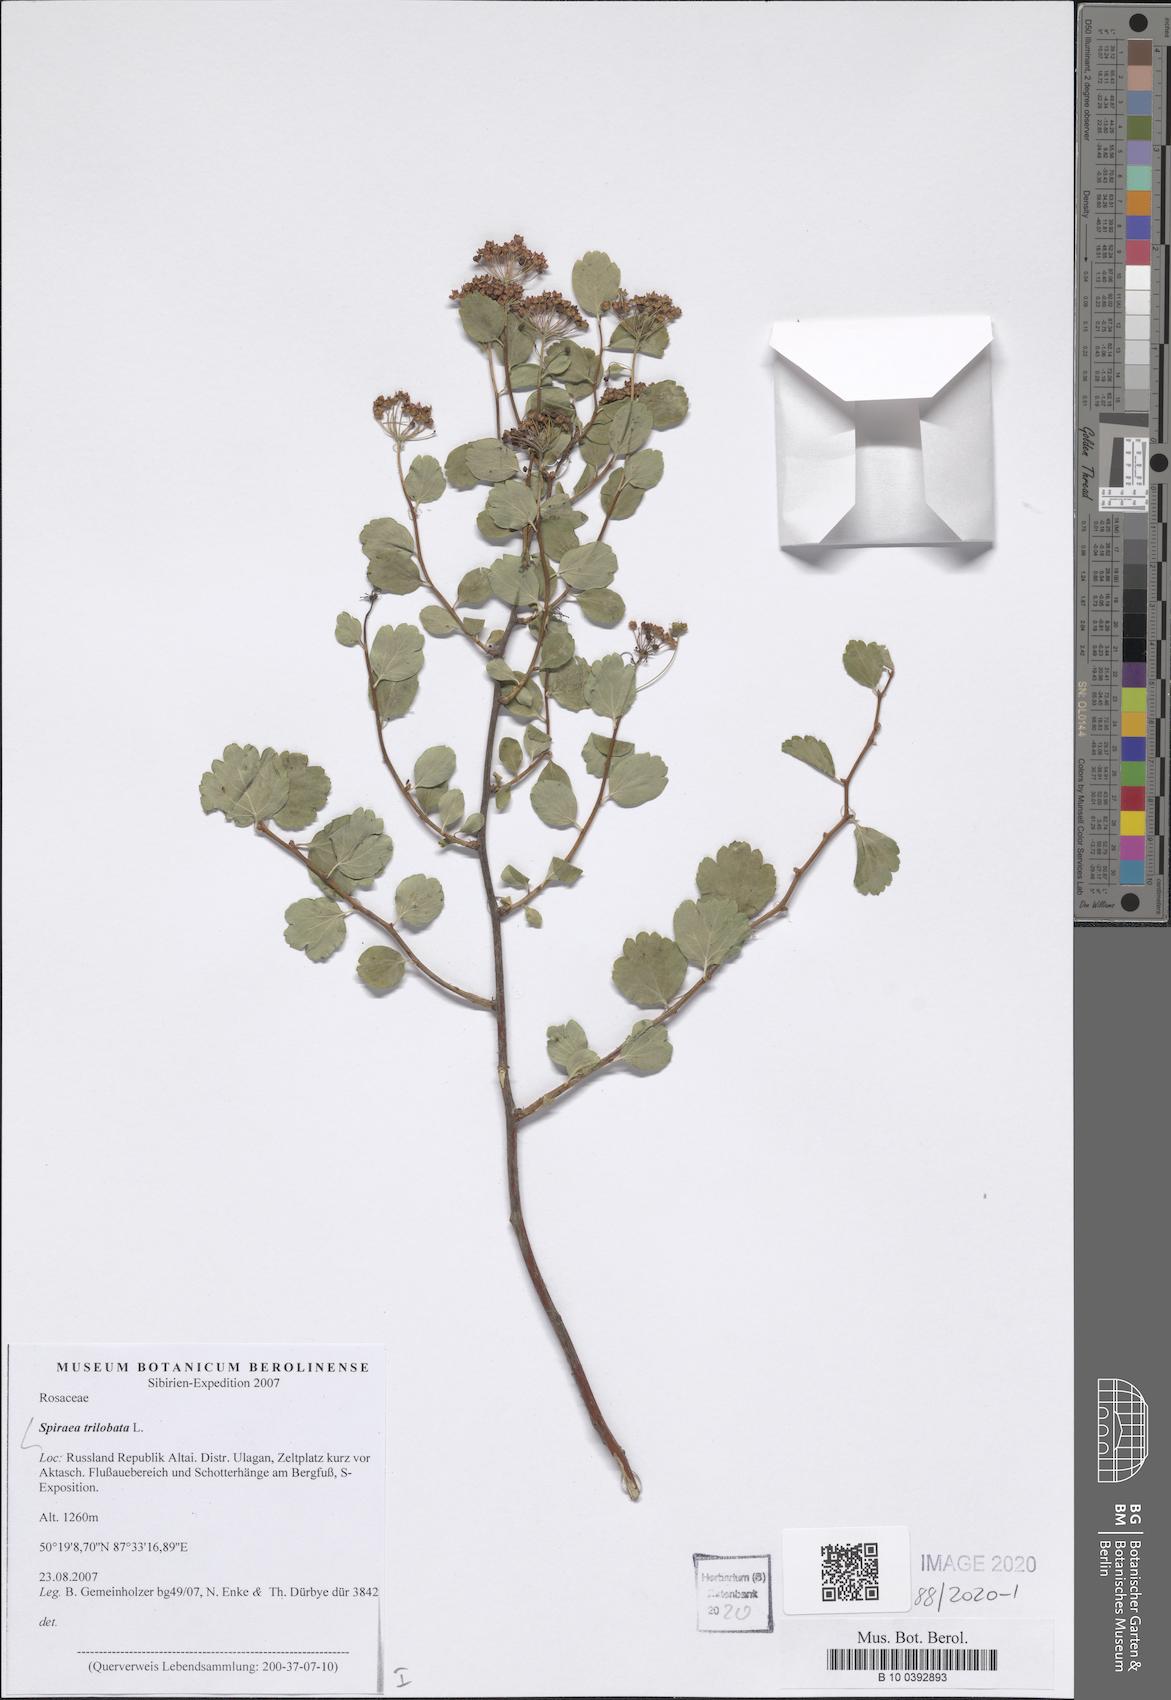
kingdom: Plantae
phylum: Tracheophyta
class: Magnoliopsida
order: Rosales
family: Rosaceae
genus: Spiraea
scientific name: Spiraea trilobata
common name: Asian meadowsweet
